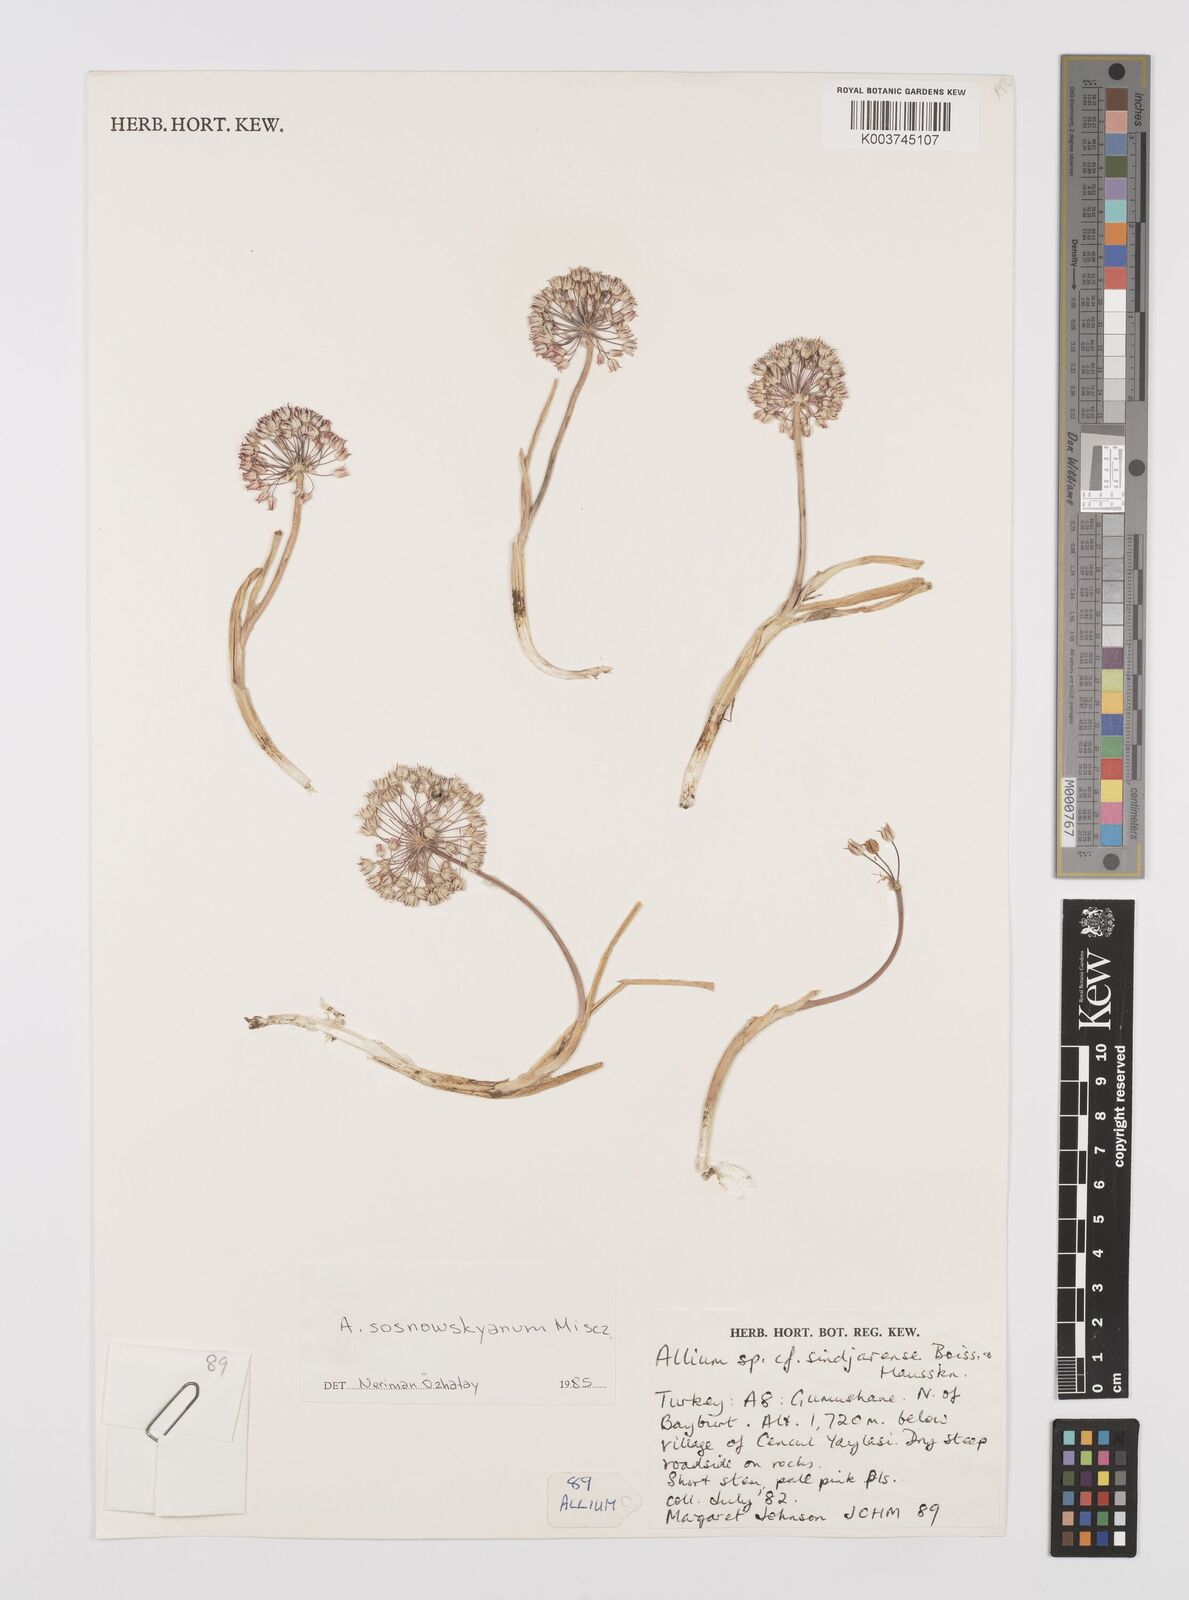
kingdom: Plantae
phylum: Tracheophyta
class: Liliopsida
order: Asparagales
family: Amaryllidaceae
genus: Allium
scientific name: Allium sosnovskyanum
